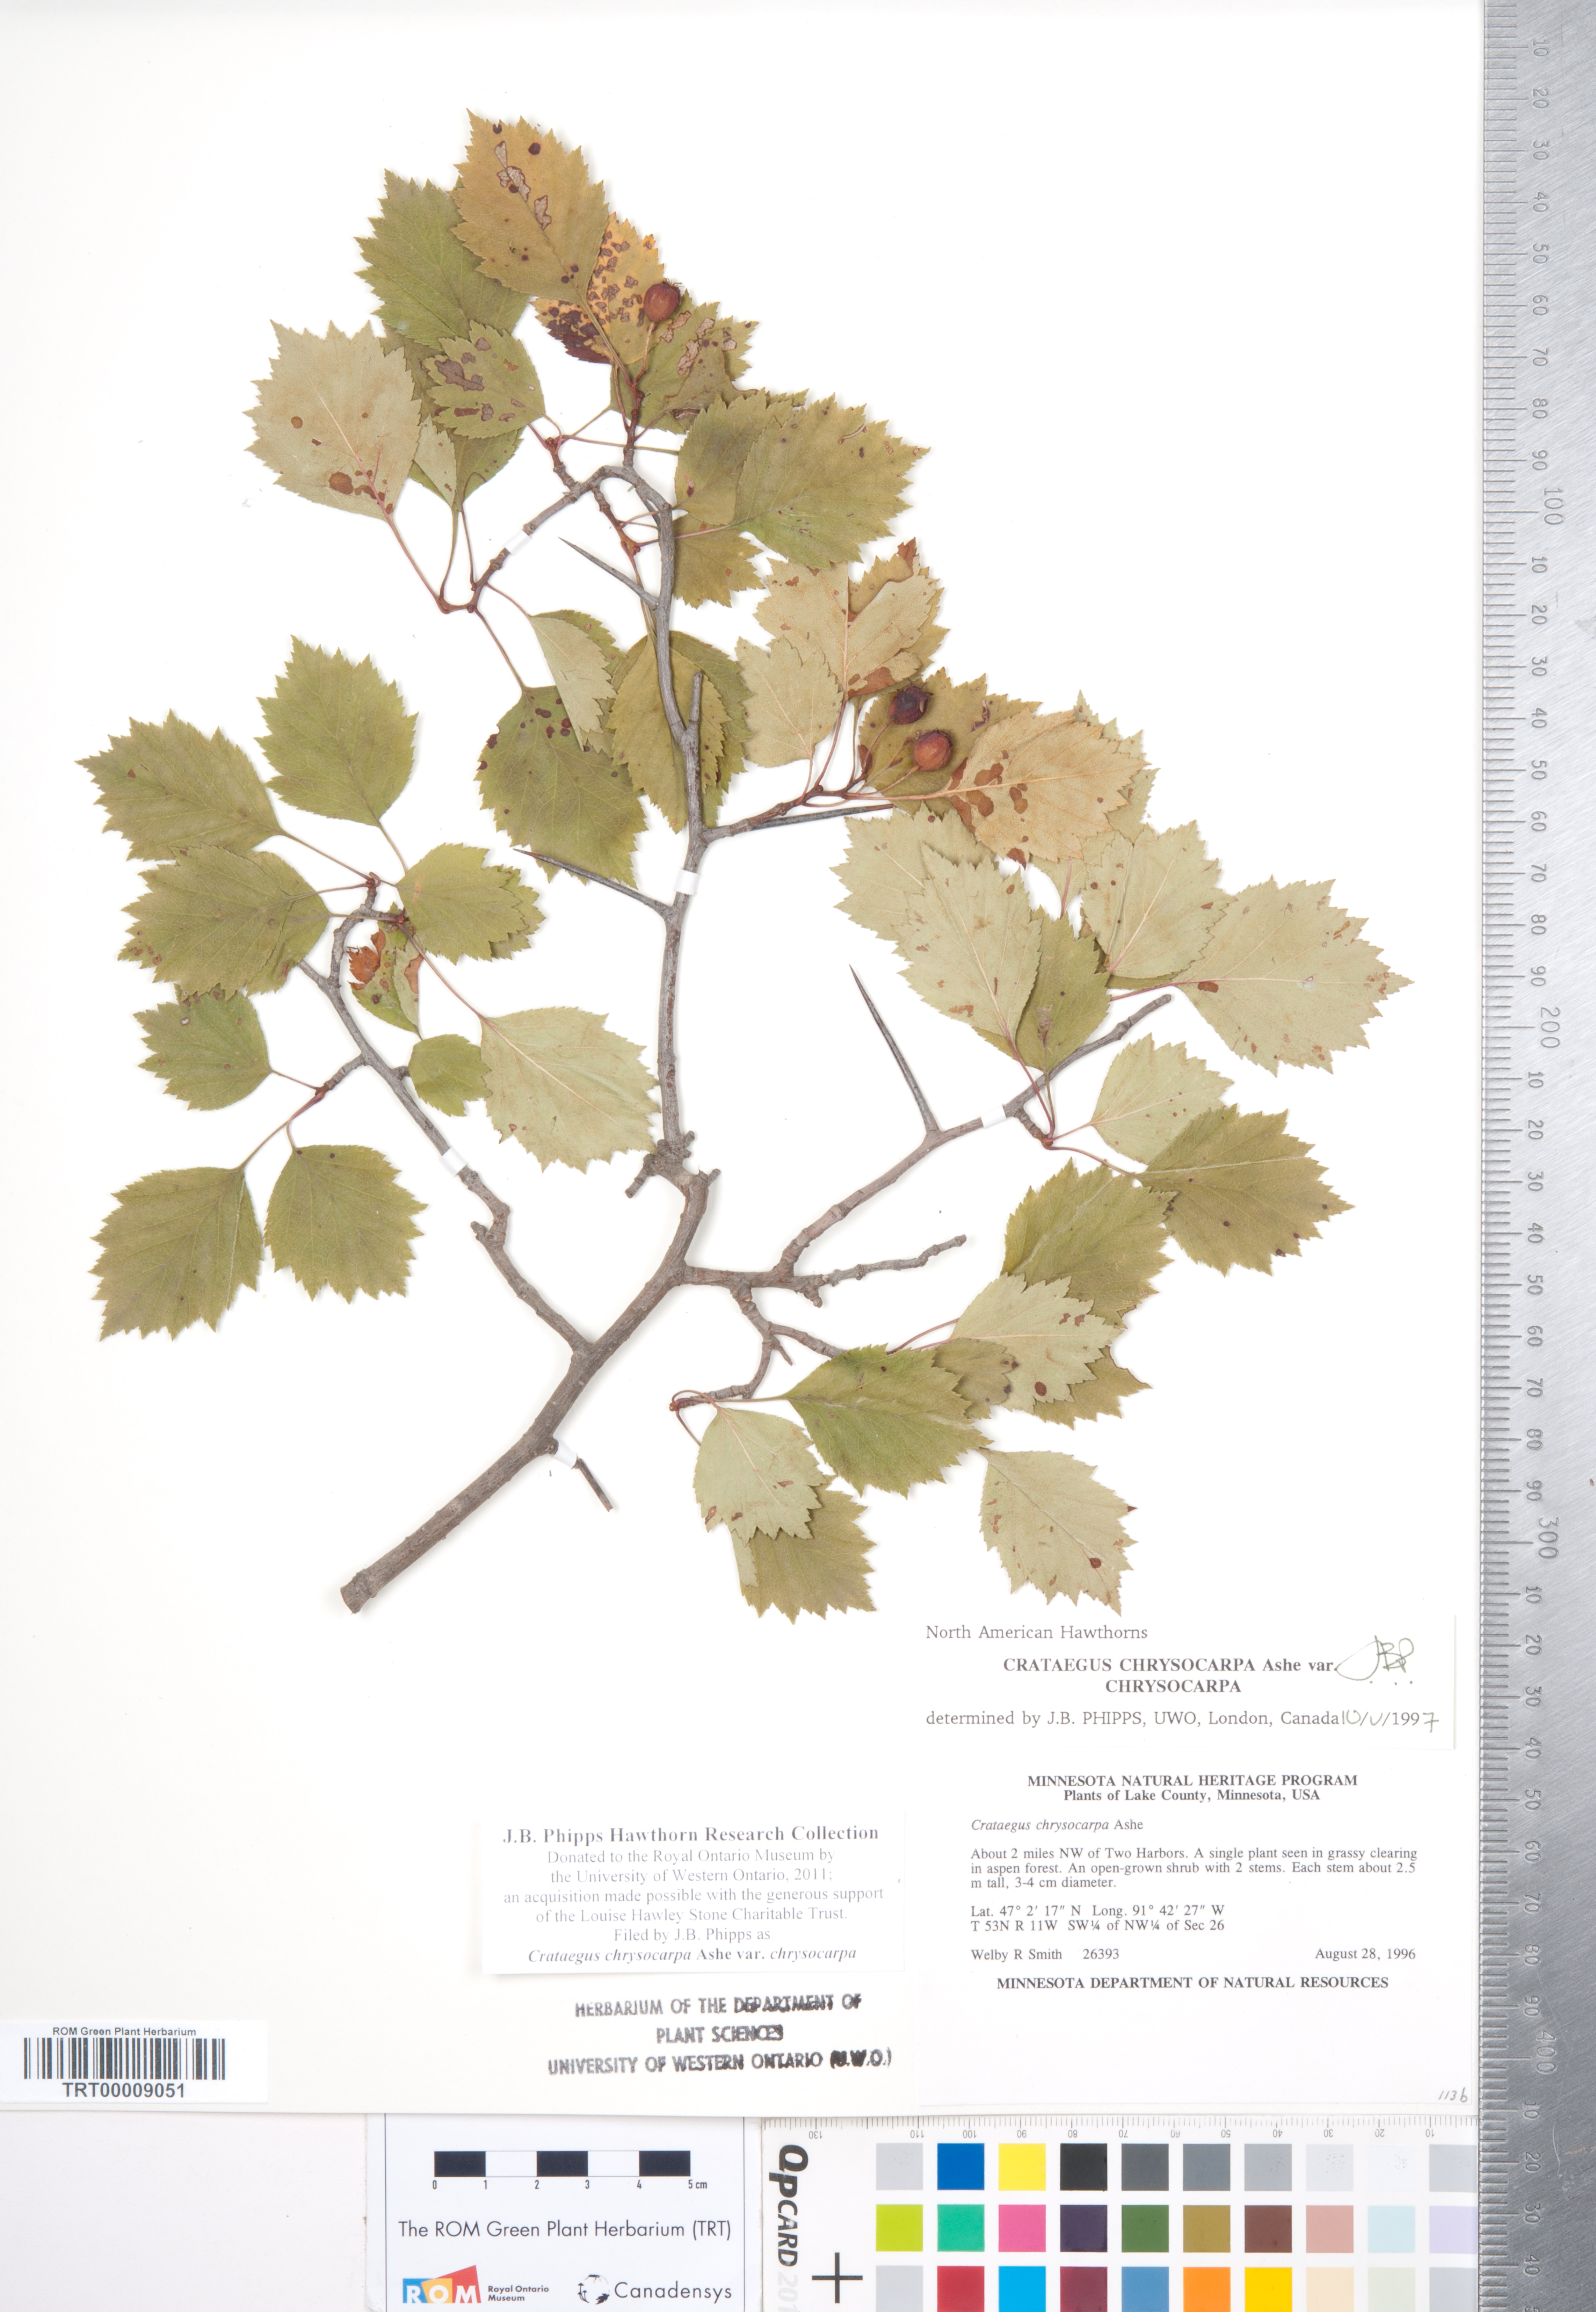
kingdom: Plantae
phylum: Tracheophyta
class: Magnoliopsida
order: Rosales
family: Rosaceae
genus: Crataegus
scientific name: Crataegus chrysocarpa
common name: Fire-berry hawthorn
